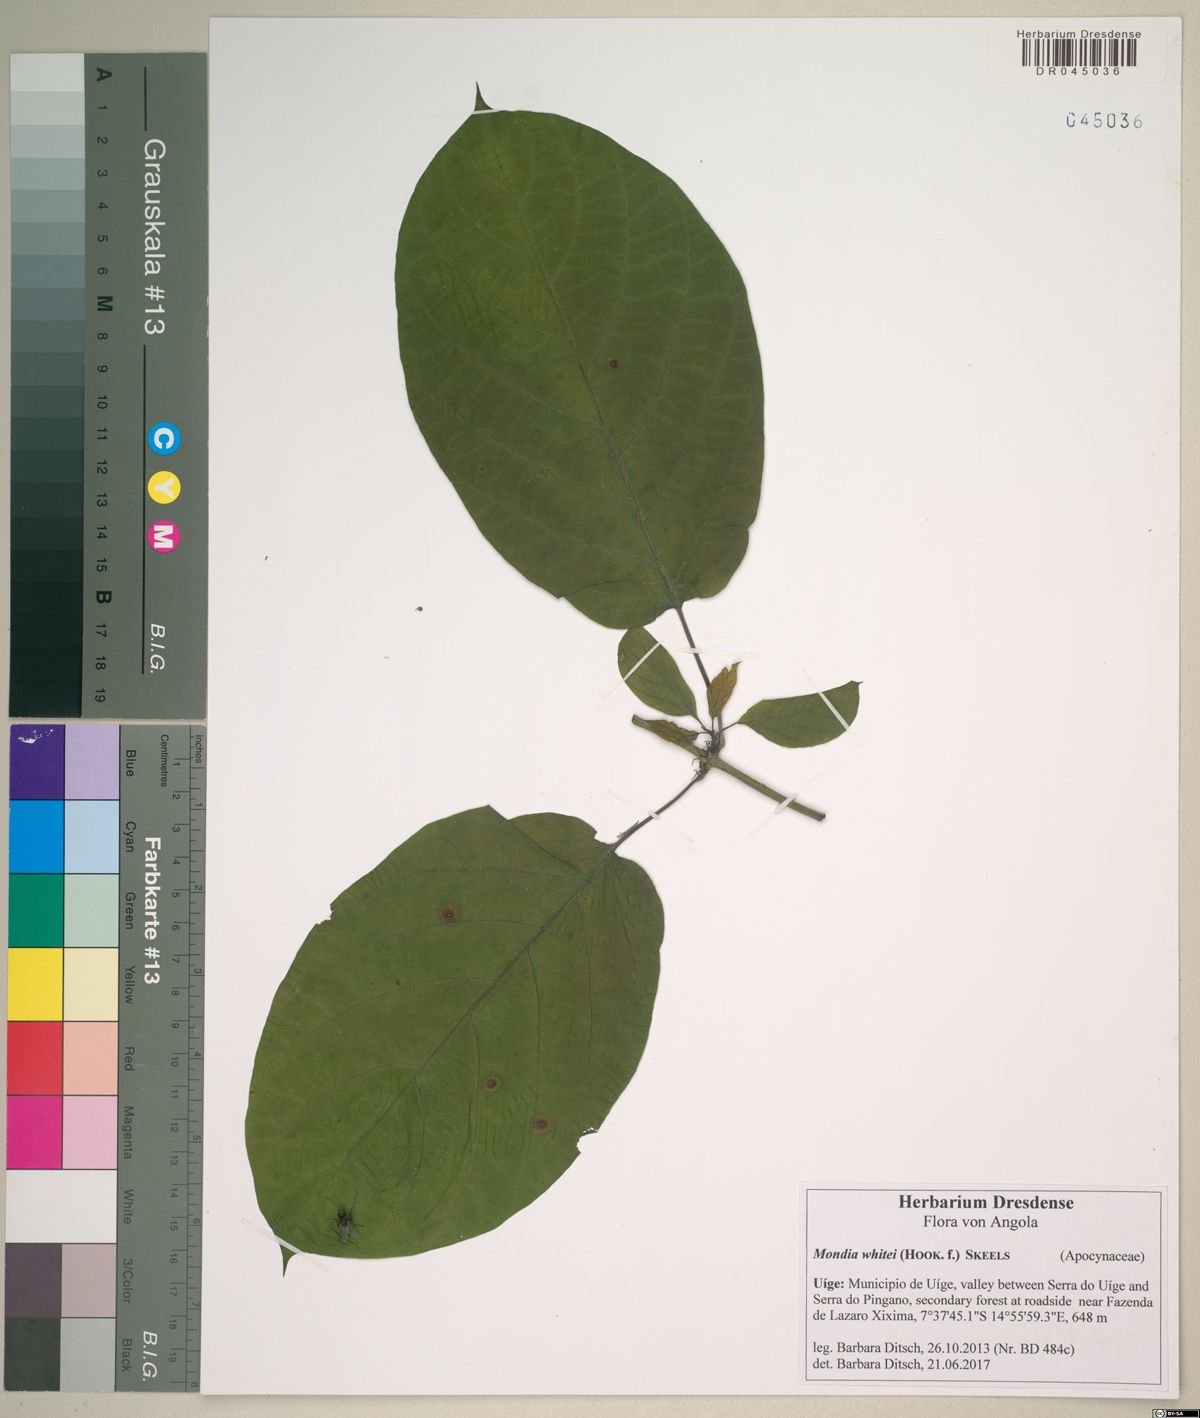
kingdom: Plantae
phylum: Tracheophyta
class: Magnoliopsida
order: Gentianales
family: Apocynaceae
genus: Mondia
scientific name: Mondia whitei
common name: Mondia
